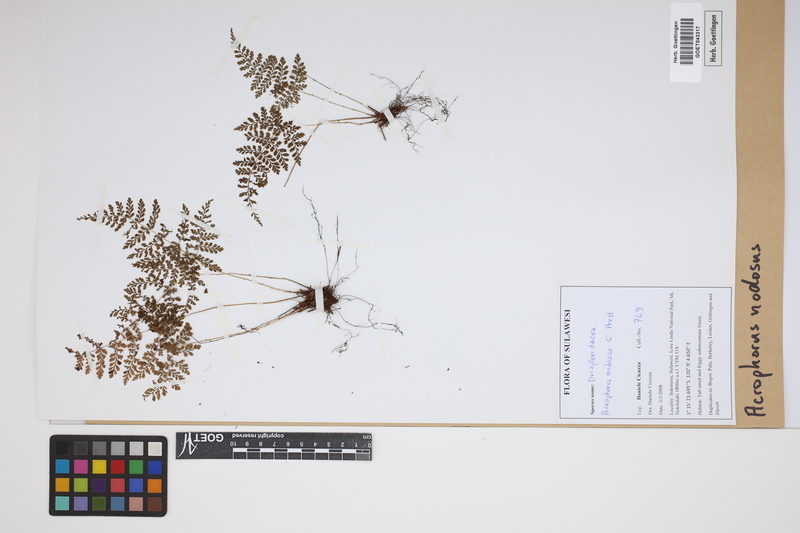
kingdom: Plantae
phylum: Tracheophyta
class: Polypodiopsida
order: Polypodiales
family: Dryopteridaceae
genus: Dryopteris
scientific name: Dryopteris nodosa
